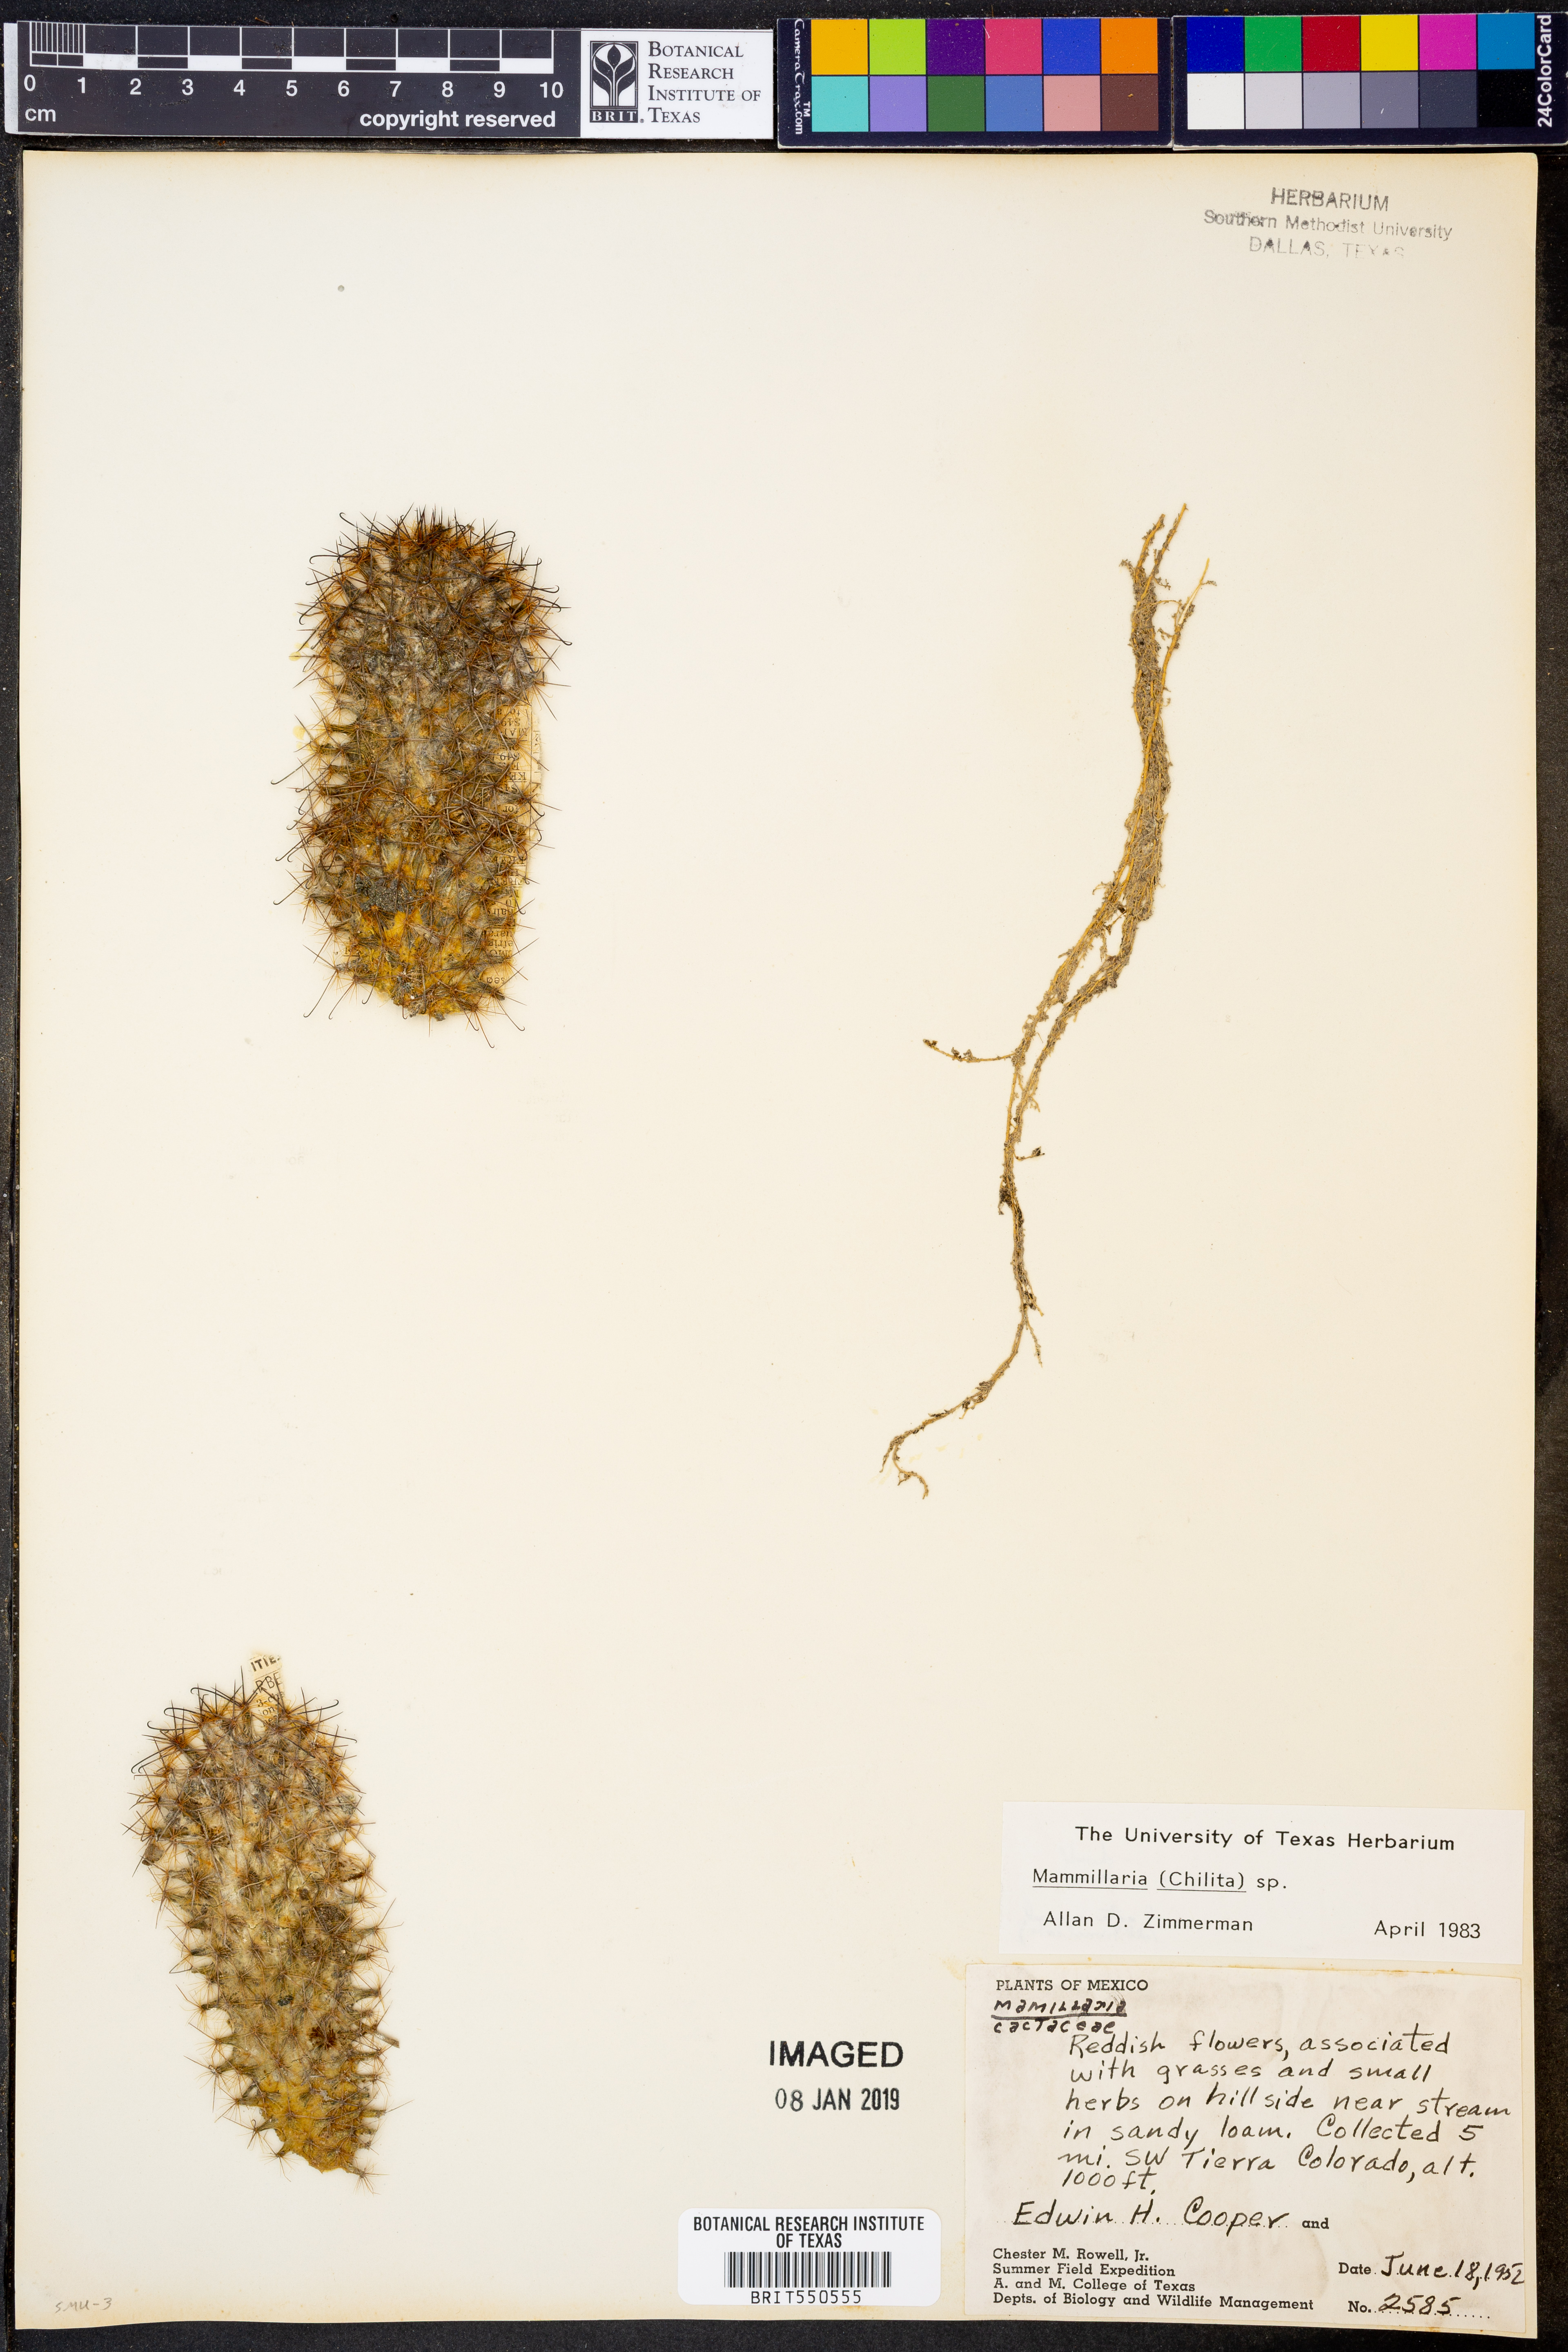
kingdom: Plantae
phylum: Tracheophyta
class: Magnoliopsida
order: Caryophyllales
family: Cactaceae
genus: Mammillaria
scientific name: Mammillaria
